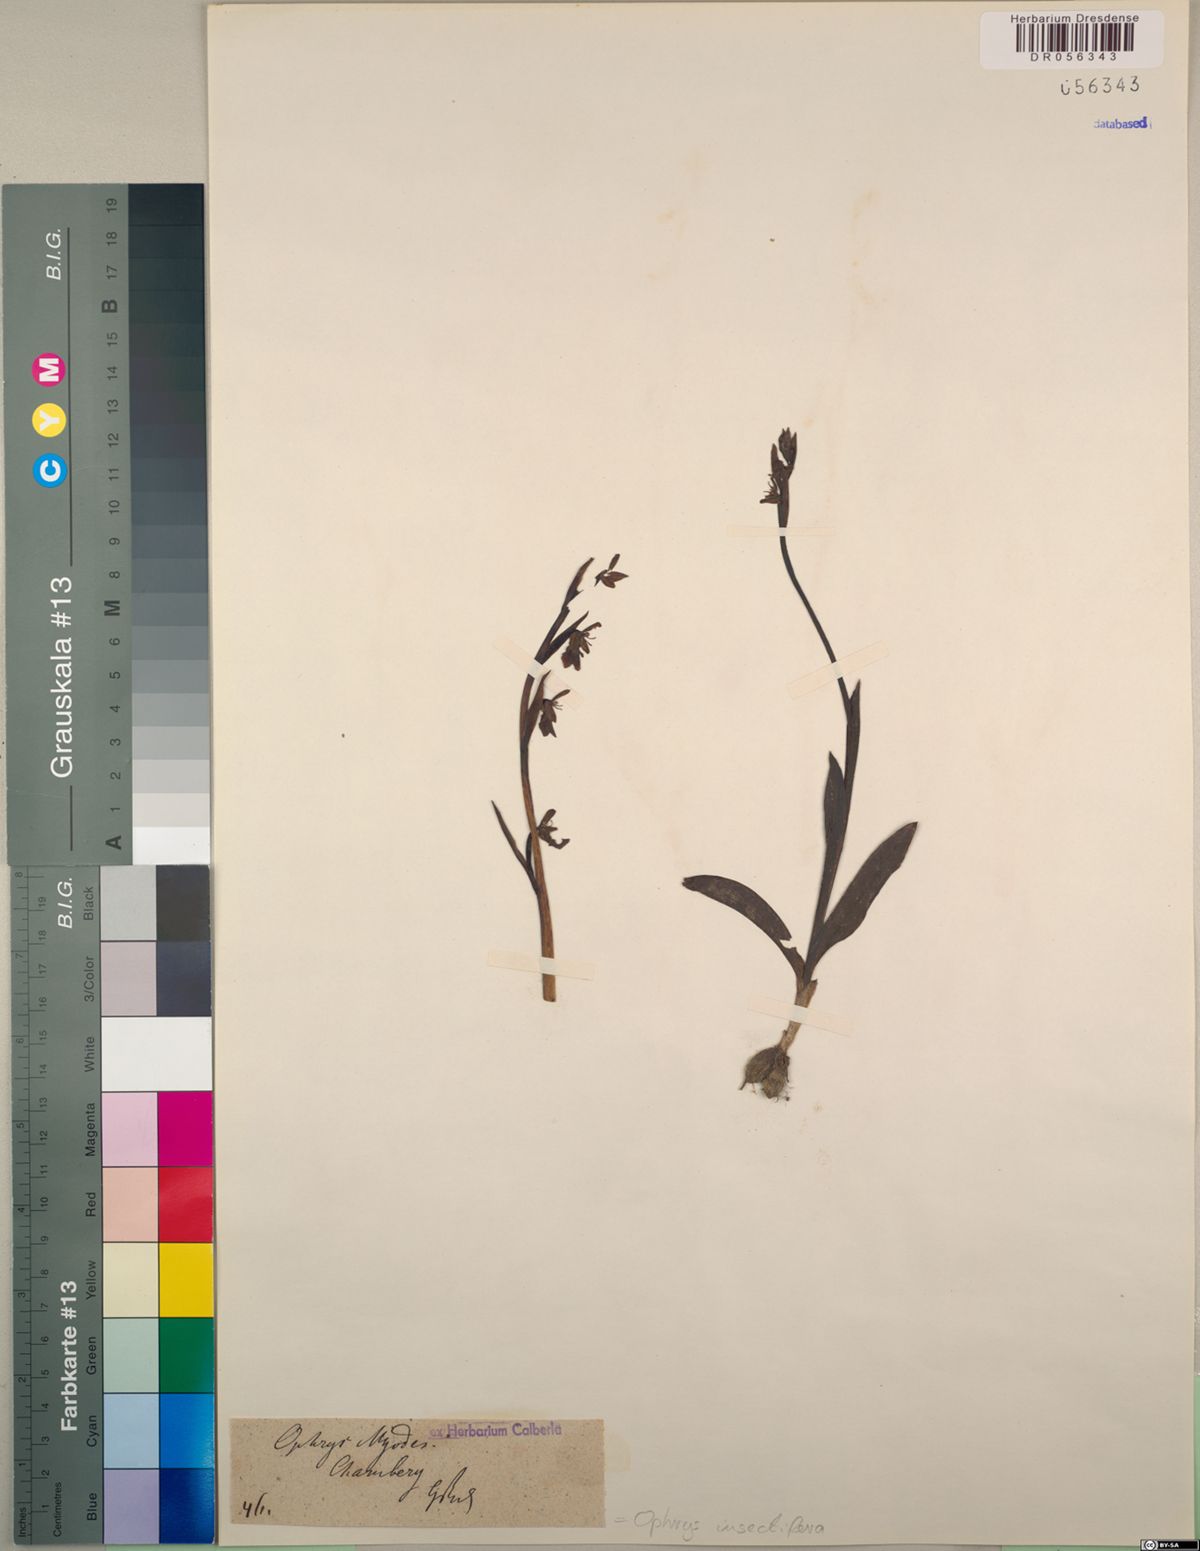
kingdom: Plantae
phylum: Tracheophyta
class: Liliopsida
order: Asparagales
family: Orchidaceae
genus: Ophrys
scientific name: Ophrys insectifera
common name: Fly orchid
